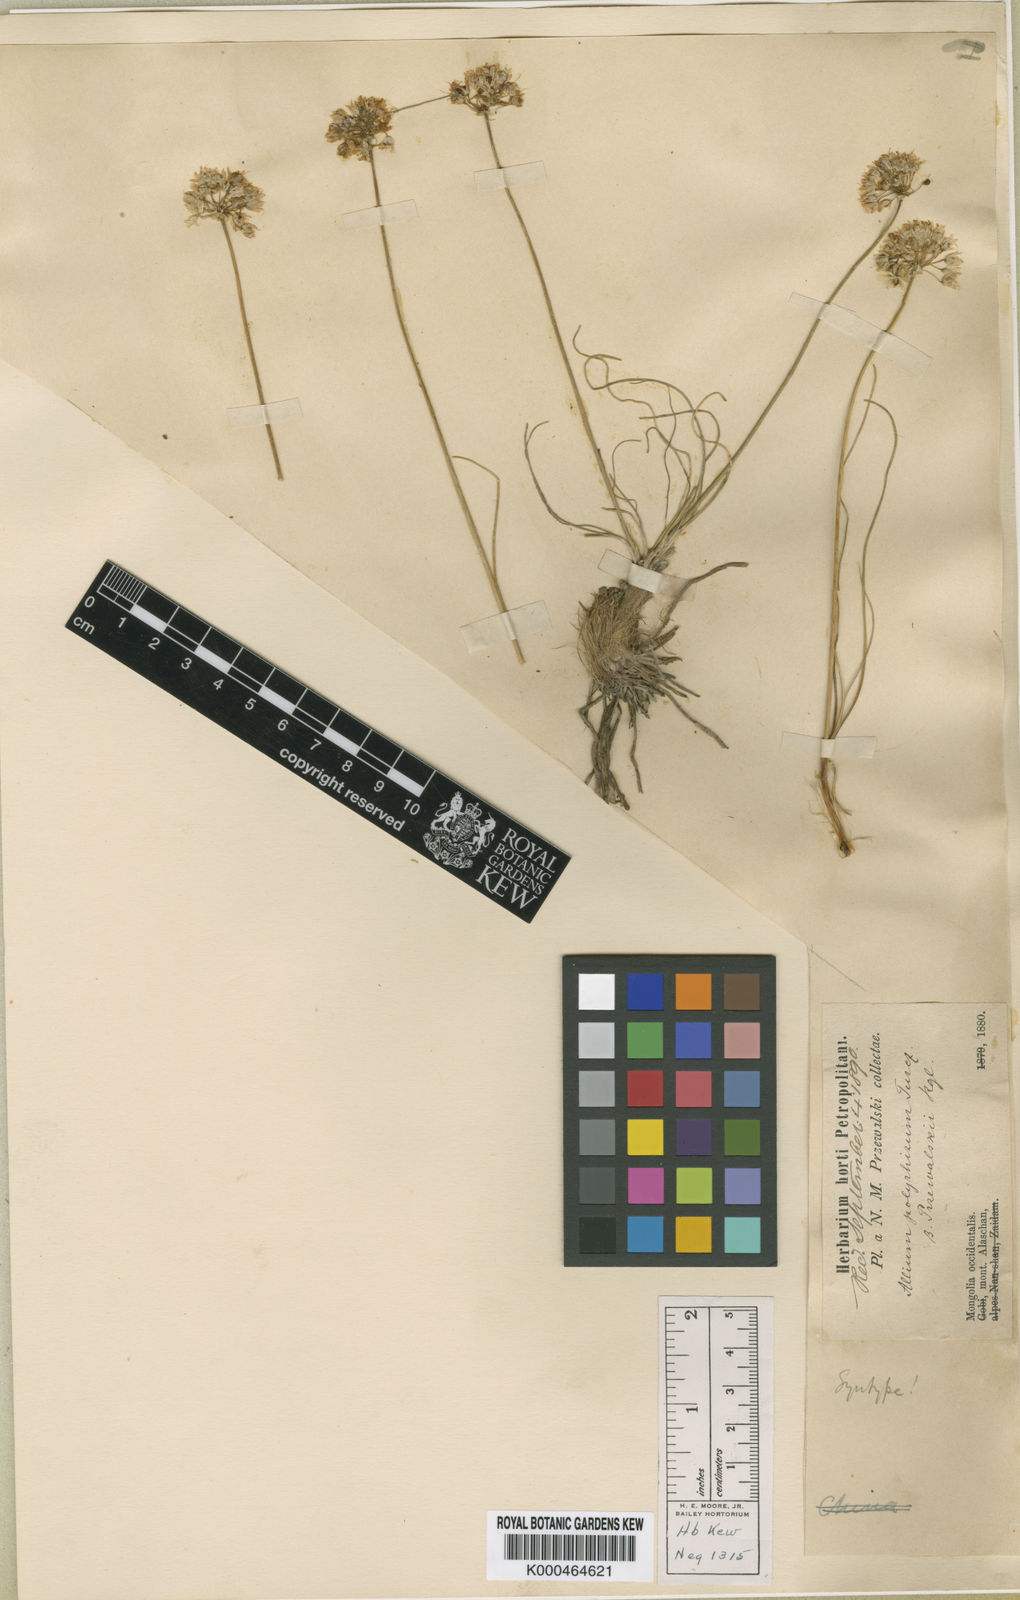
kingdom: Plantae
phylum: Tracheophyta
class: Liliopsida
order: Asparagales
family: Amaryllidaceae
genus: Allium
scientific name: Allium przewalskianum
